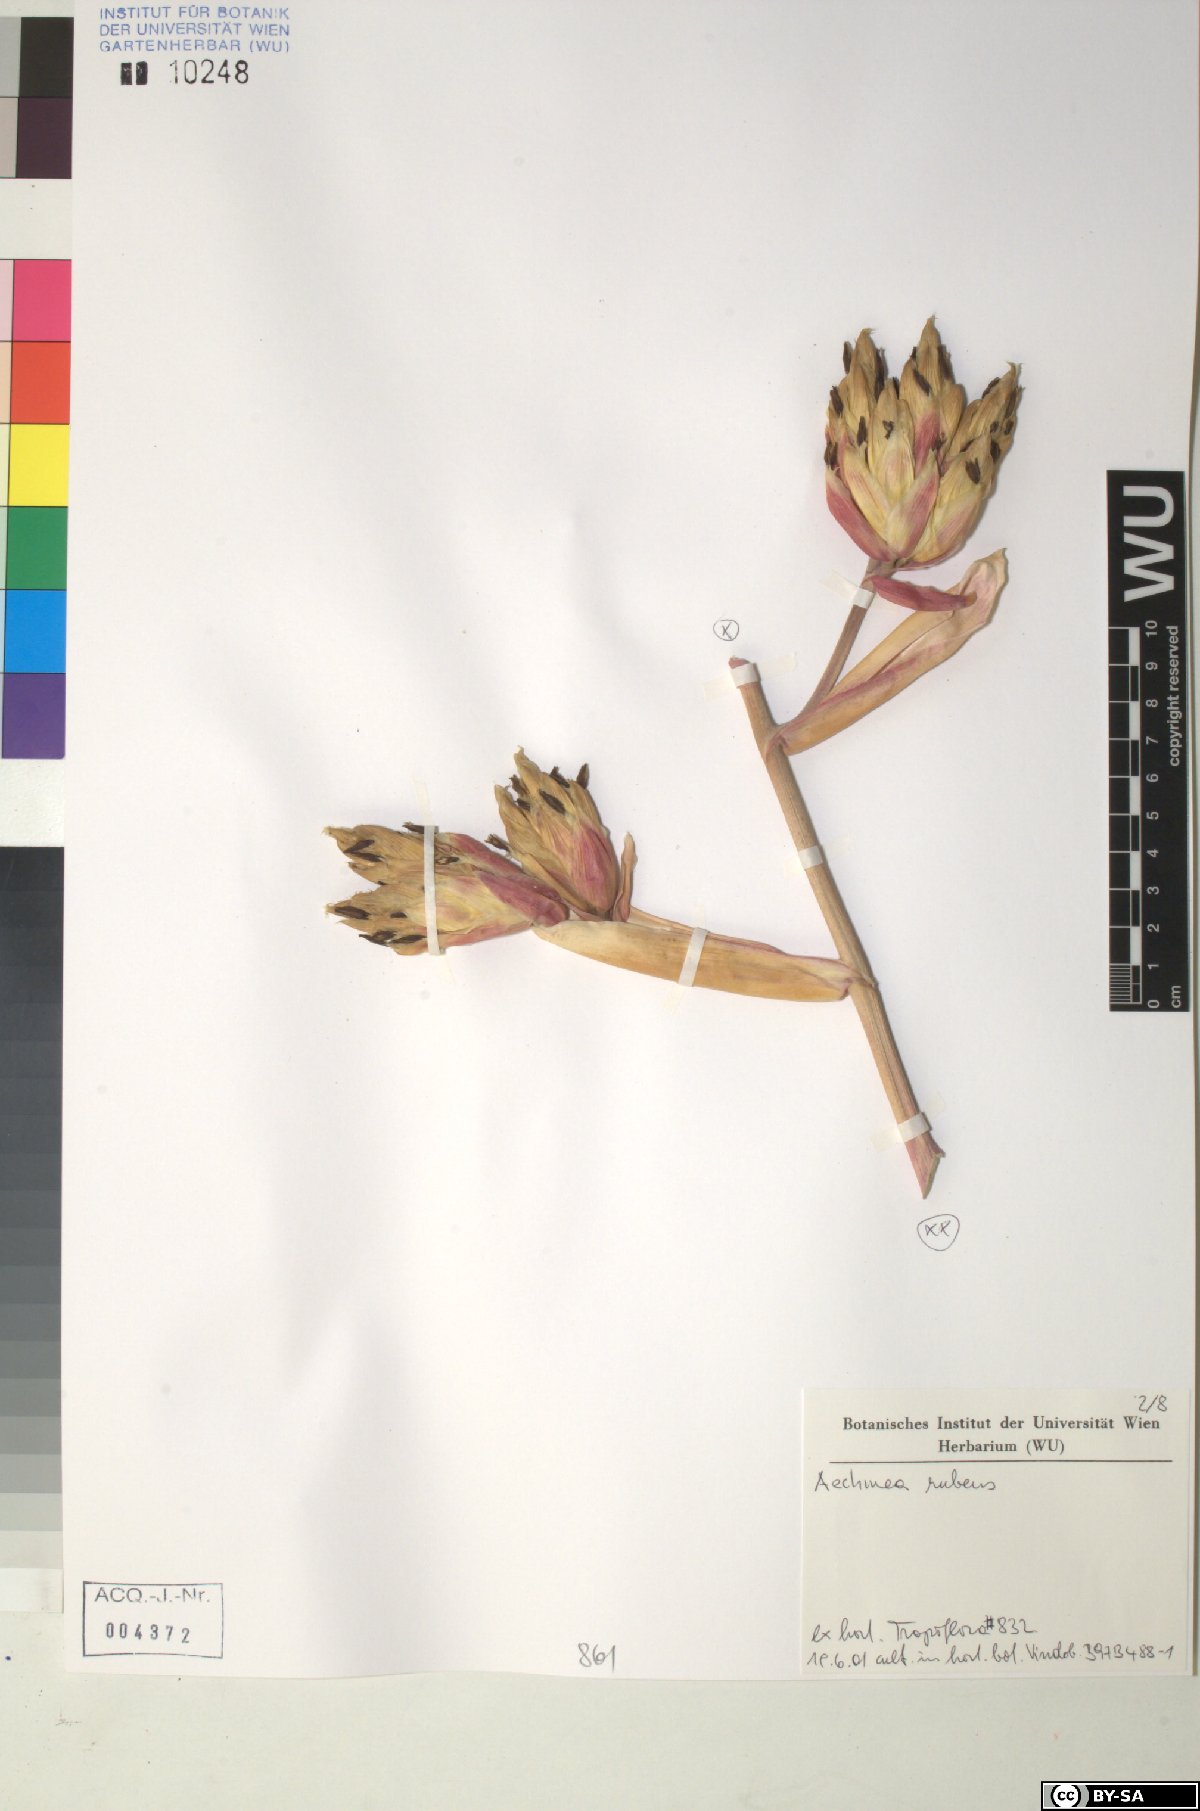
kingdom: Plantae
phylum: Tracheophyta
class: Liliopsida
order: Poales
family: Bromeliaceae
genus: Aechmea
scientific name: Aechmea rubens
